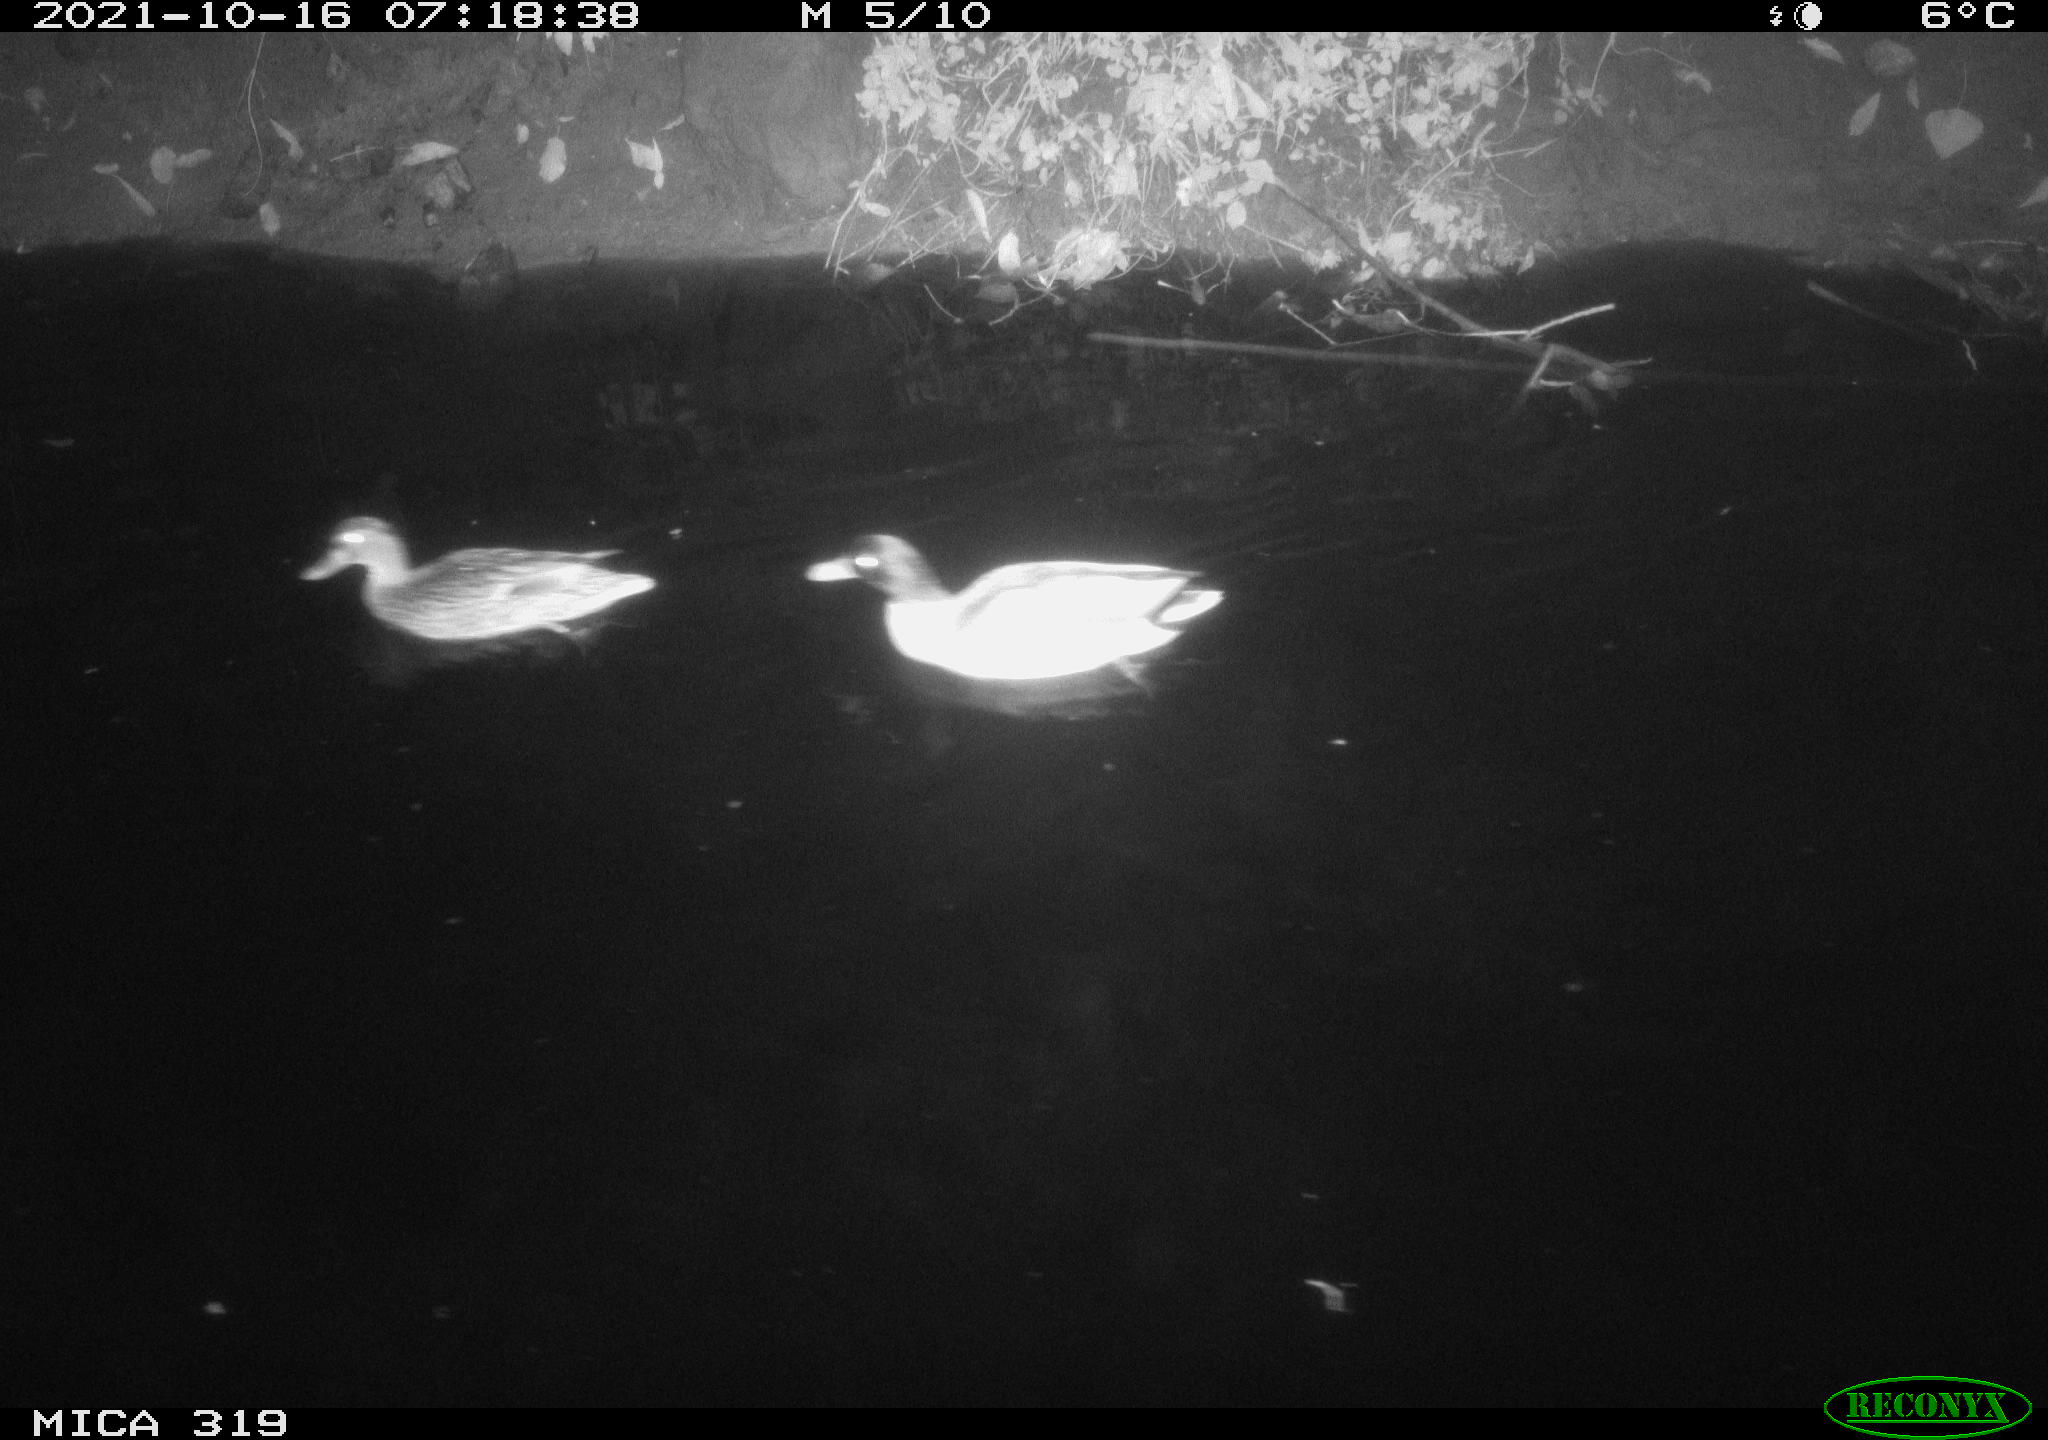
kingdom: Animalia
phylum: Chordata
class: Aves
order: Anseriformes
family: Anatidae
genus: Anas
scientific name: Anas platyrhynchos
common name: Mallard
